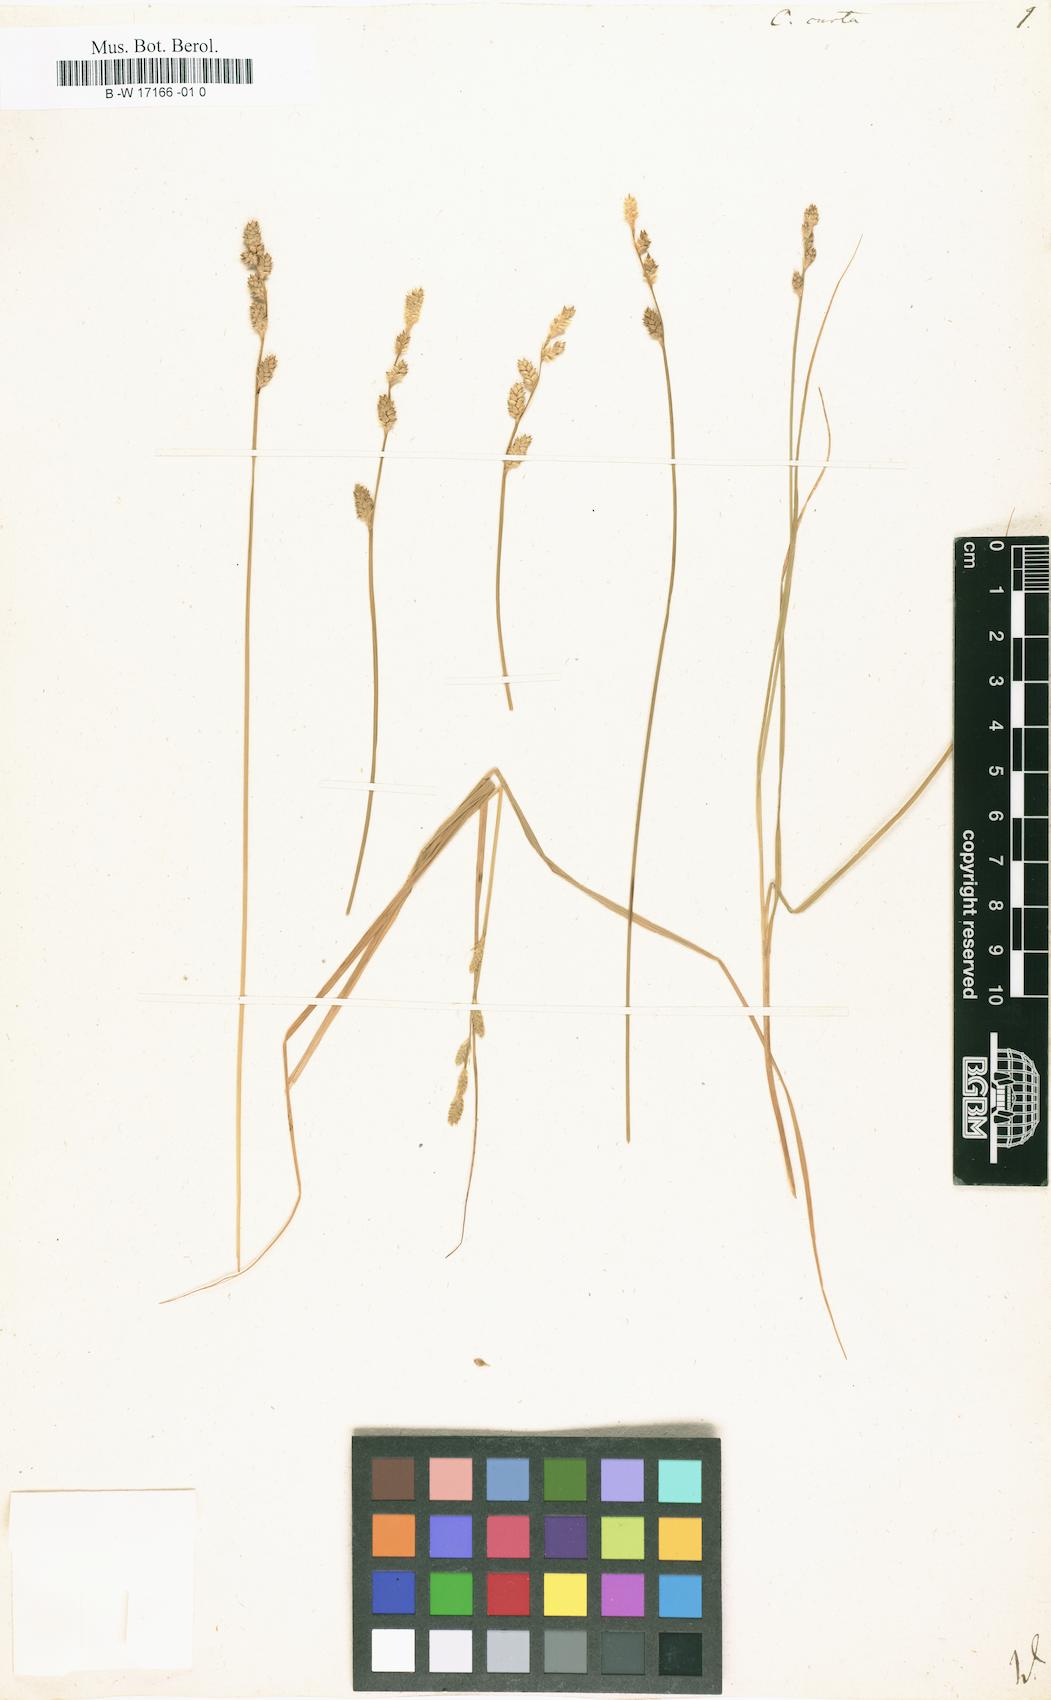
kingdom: Plantae
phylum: Tracheophyta
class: Liliopsida
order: Poales
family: Cyperaceae
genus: Carex
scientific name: Carex curta
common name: White sedge
